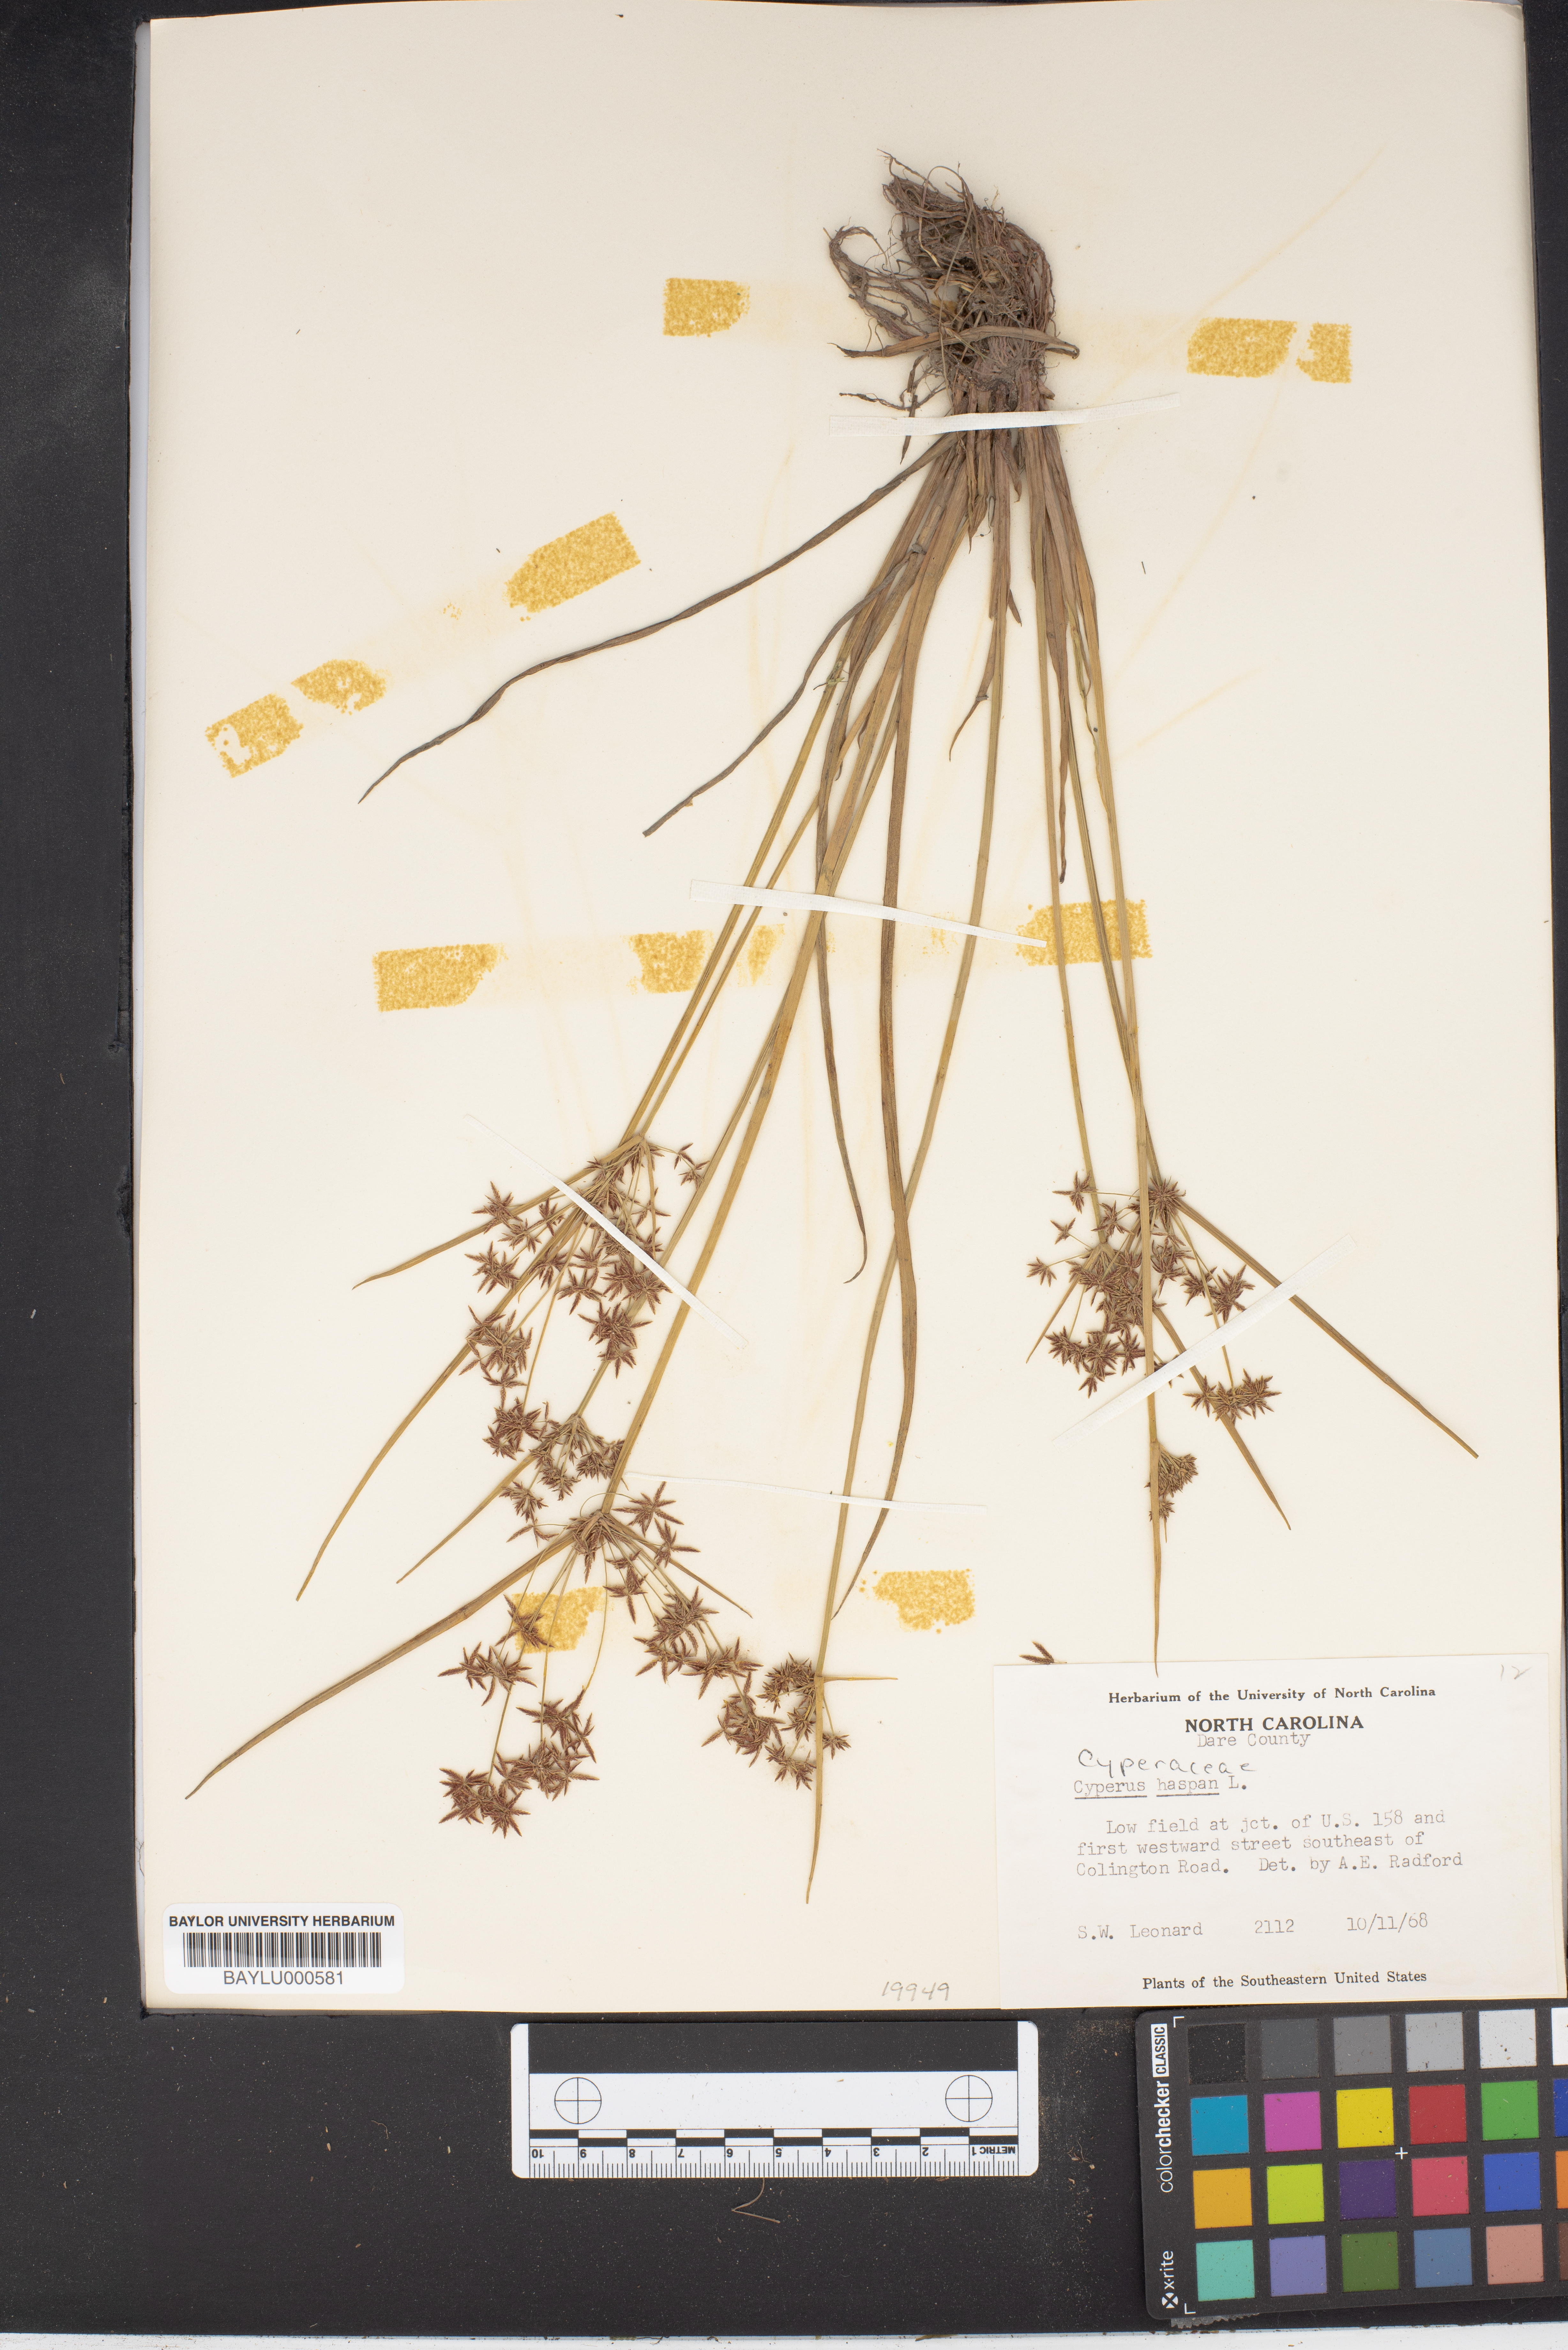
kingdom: Plantae
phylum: Tracheophyta
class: Liliopsida
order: Poales
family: Cyperaceae
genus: Cyperus
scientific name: Cyperus haspan
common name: Haspan flatsedge
